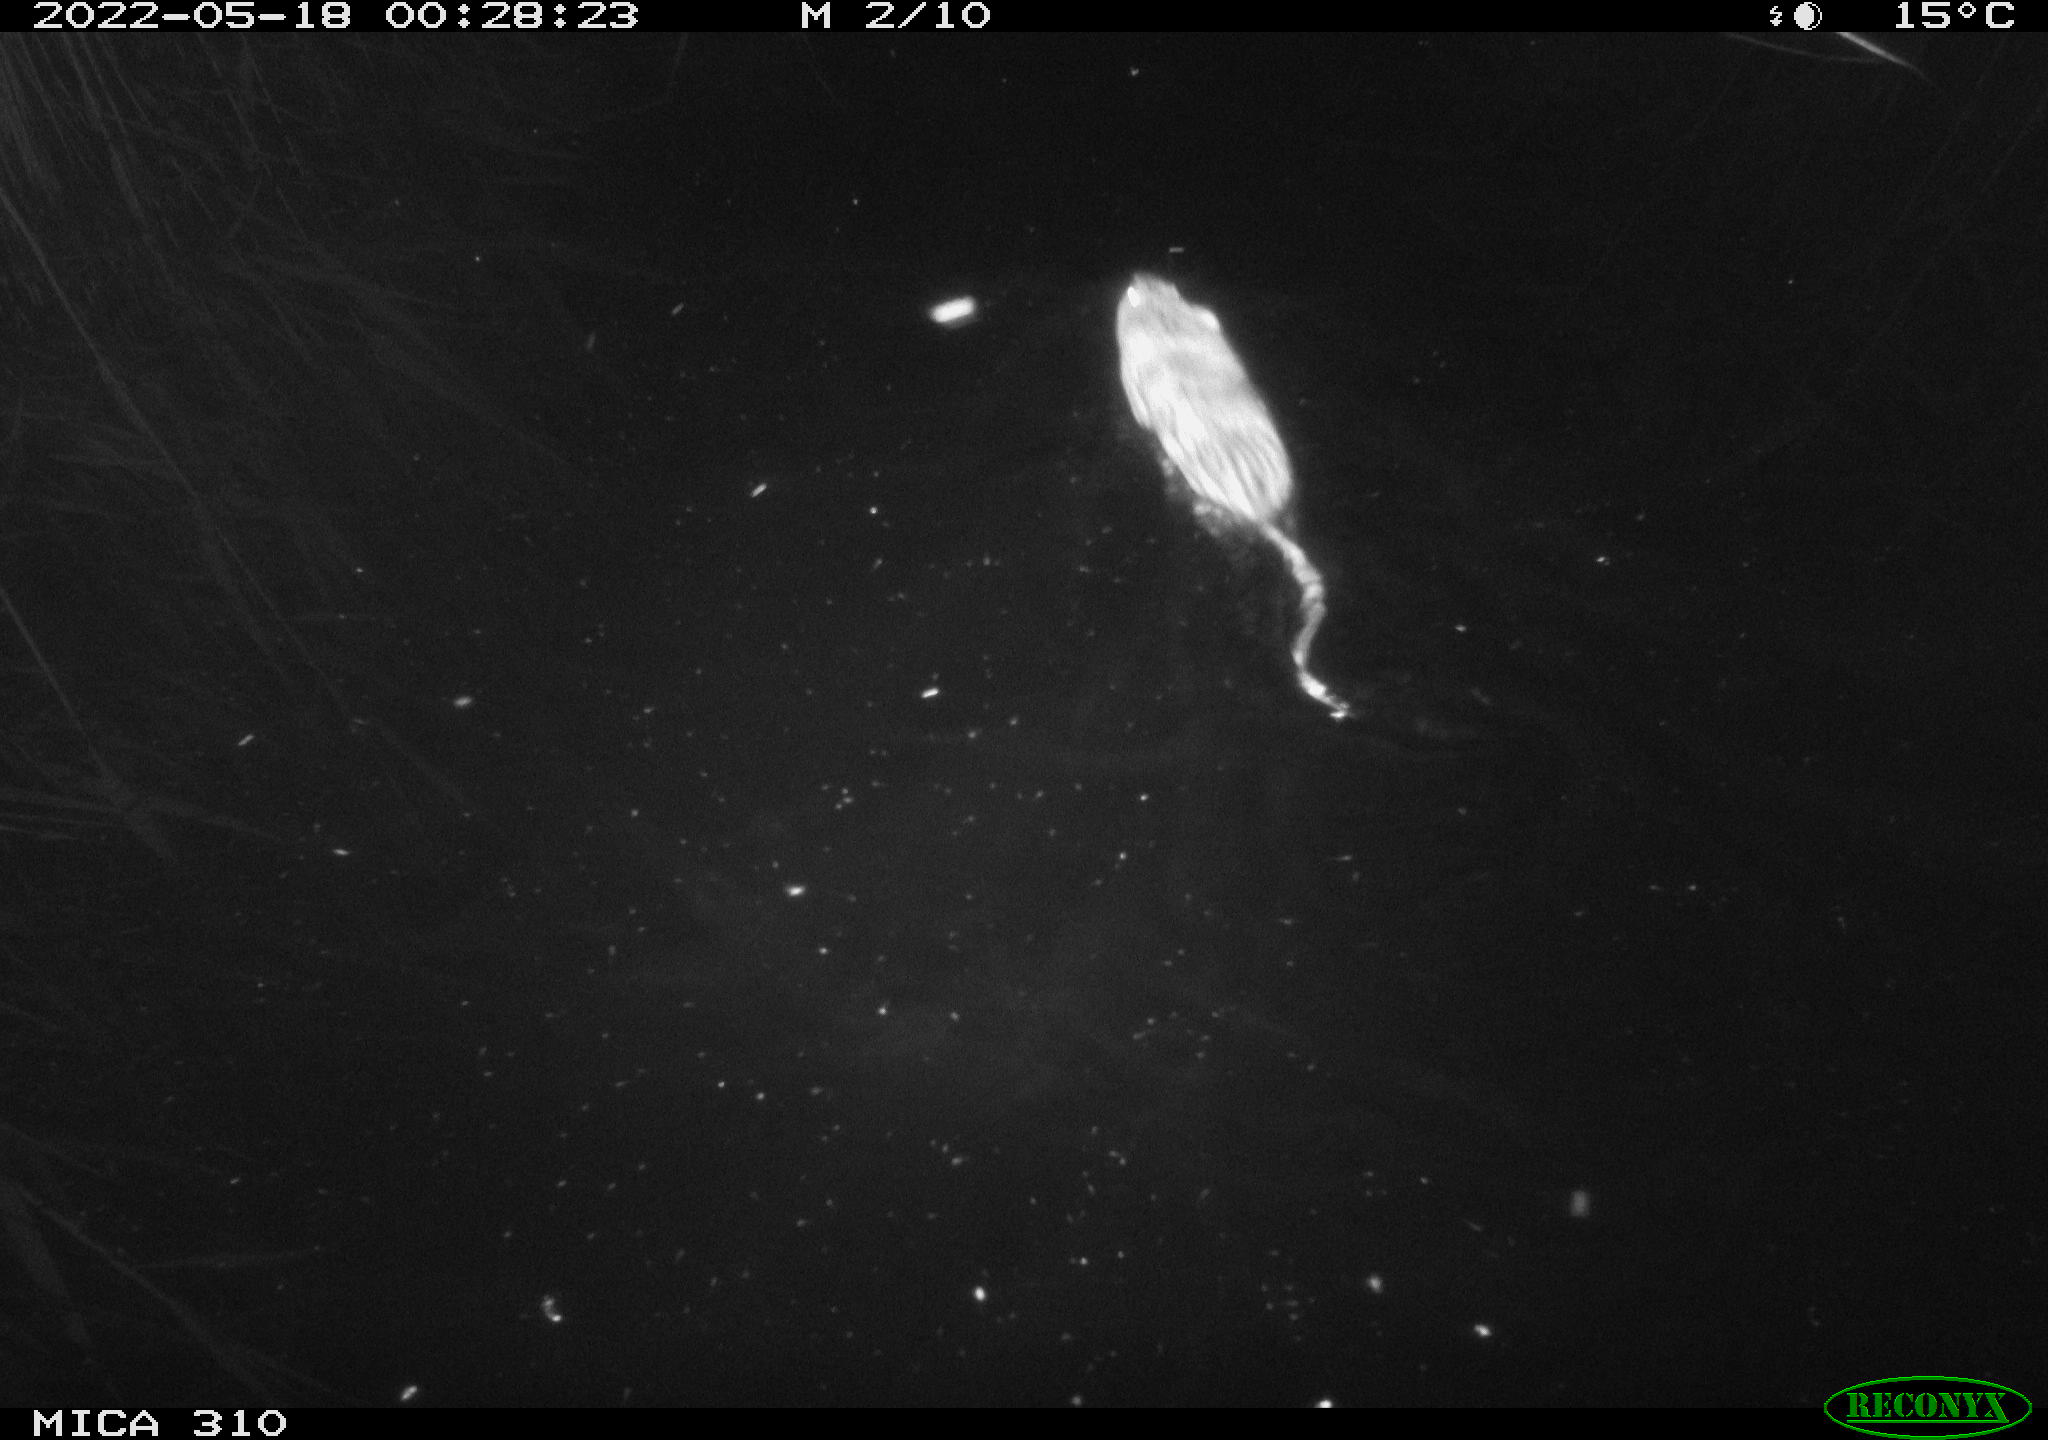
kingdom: Animalia
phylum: Chordata
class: Mammalia
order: Rodentia
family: Cricetidae
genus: Ondatra
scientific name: Ondatra zibethicus
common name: Muskrat
